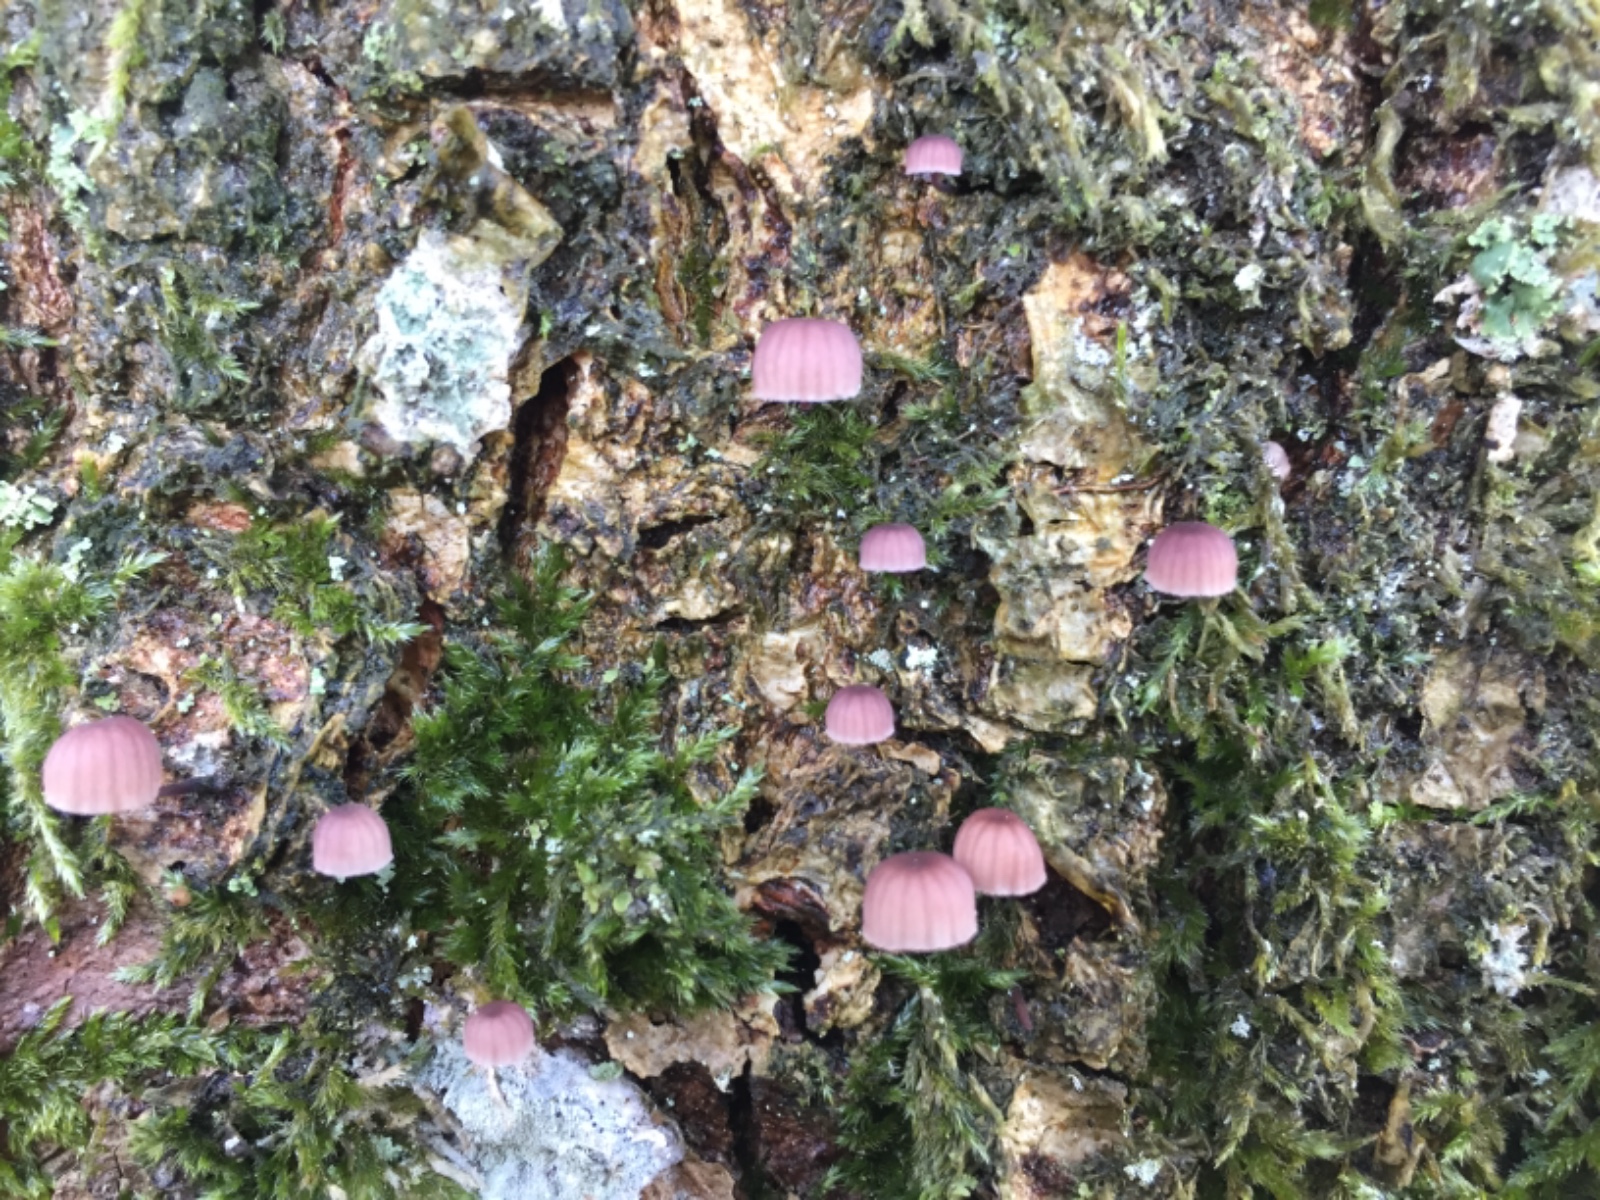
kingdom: Fungi
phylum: Basidiomycota
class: Agaricomycetes
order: Agaricales
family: Mycenaceae
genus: Mycena
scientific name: Mycena meliigena
